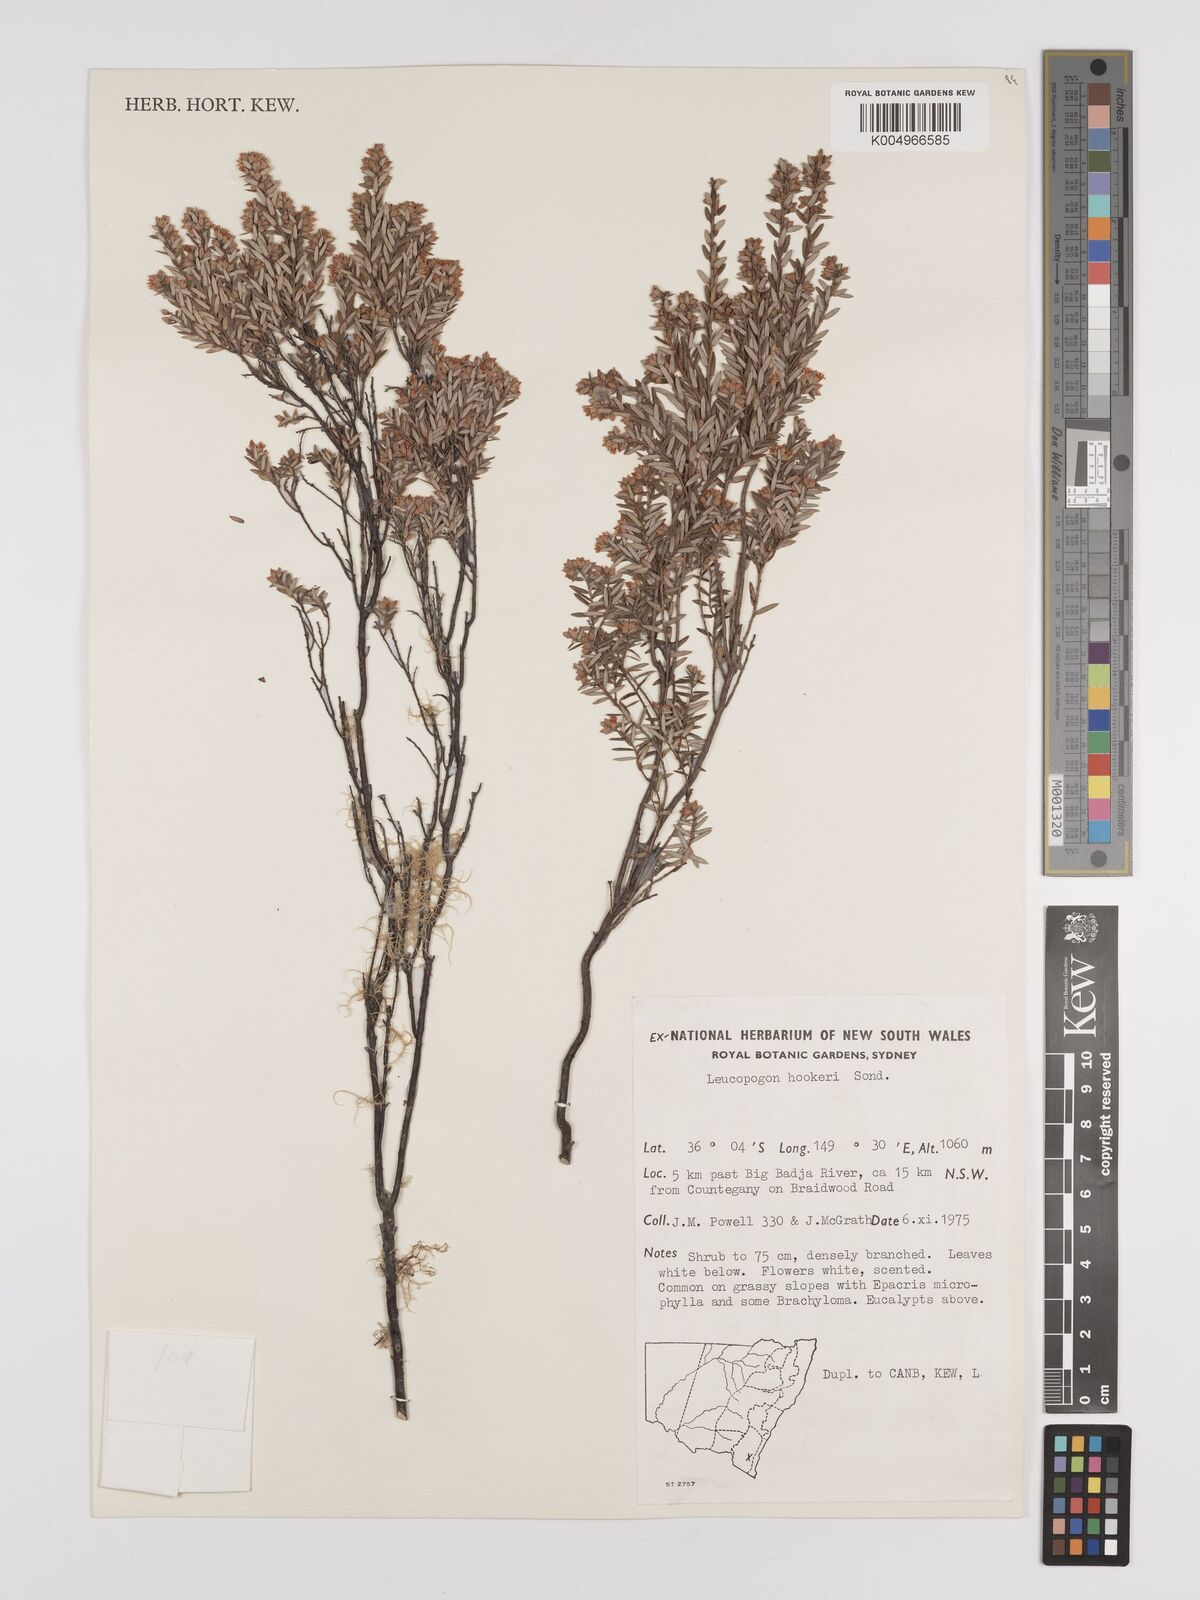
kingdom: Plantae
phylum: Tracheophyta
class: Magnoliopsida
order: Ericales
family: Ericaceae
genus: Acrothamnus
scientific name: Acrothamnus hookeri
